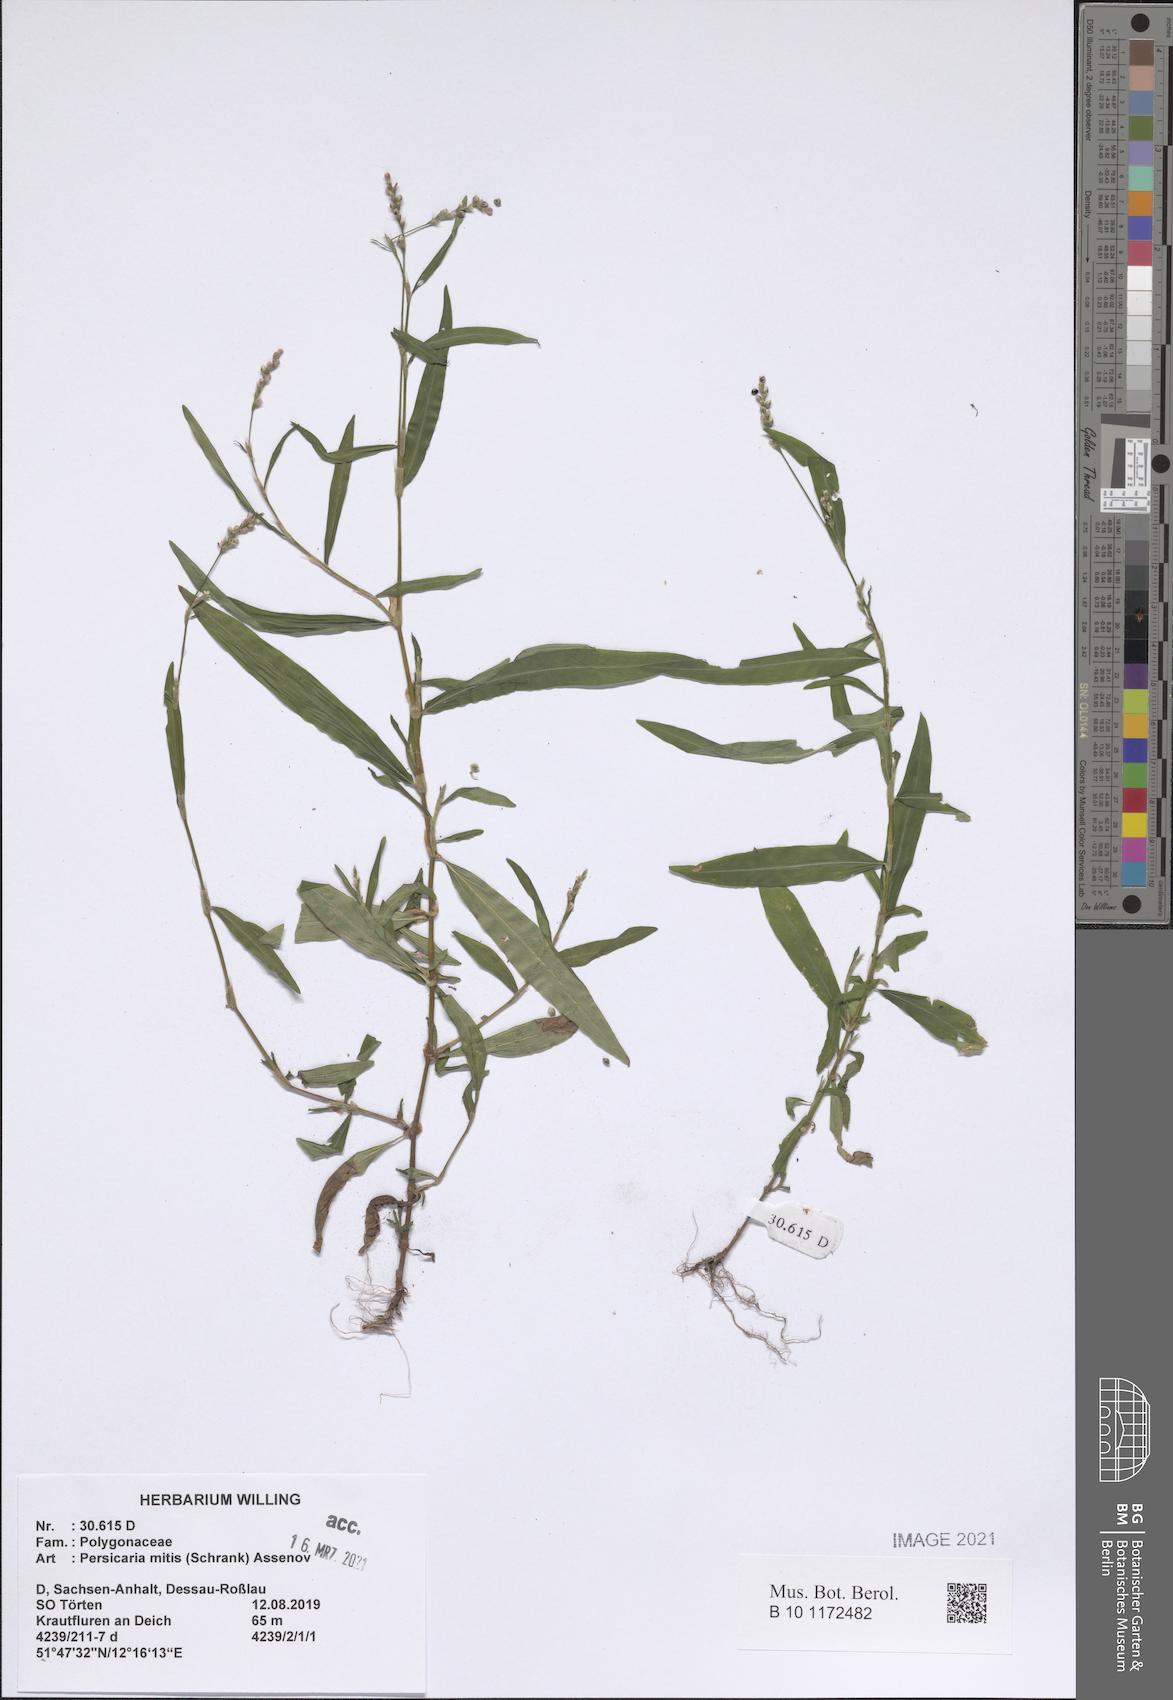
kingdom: Plantae
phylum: Tracheophyta
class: Magnoliopsida
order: Caryophyllales
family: Polygonaceae
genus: Persicaria
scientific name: Persicaria mitis
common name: Tasteless water-pepper
